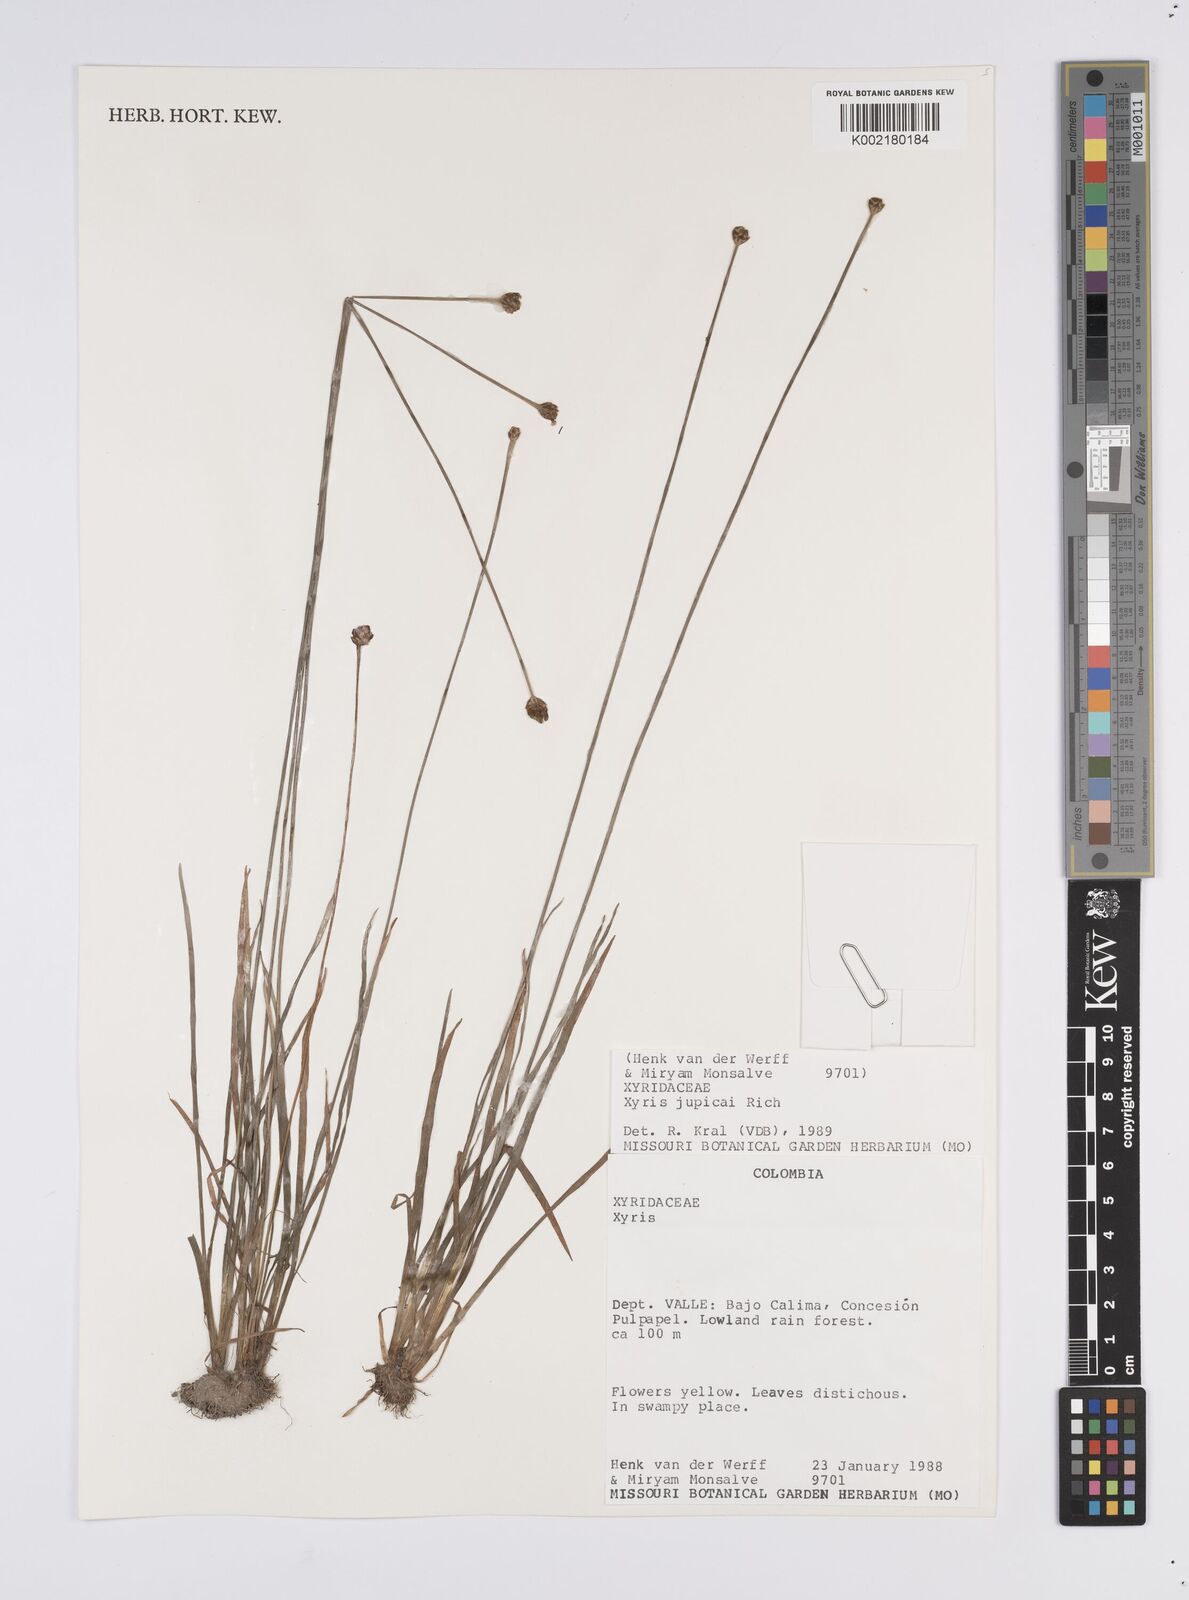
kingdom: Plantae
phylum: Tracheophyta
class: Liliopsida
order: Poales
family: Xyridaceae
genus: Xyris
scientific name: Xyris jupicai
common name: Richard's yelloweyed grass
